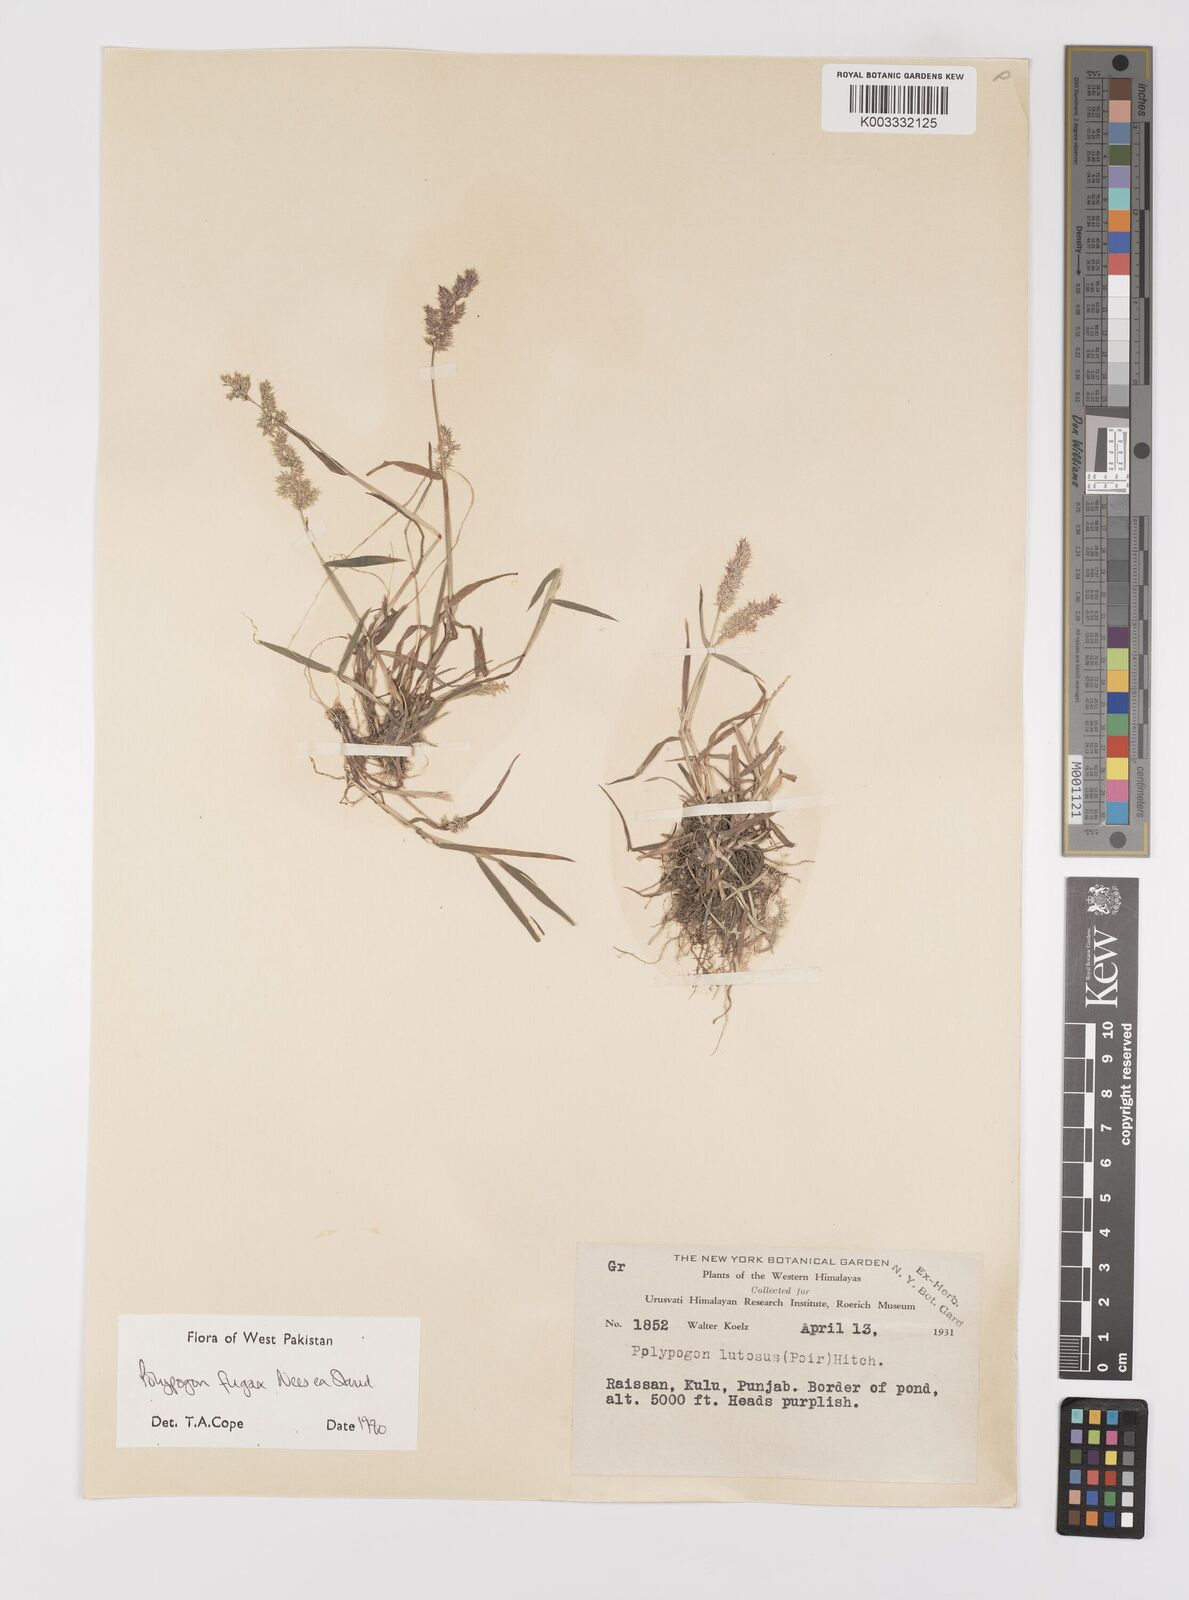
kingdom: Plantae
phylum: Tracheophyta
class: Liliopsida
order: Poales
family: Poaceae
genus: Polypogon
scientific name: Polypogon fugax
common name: Asia minor bluegrass
